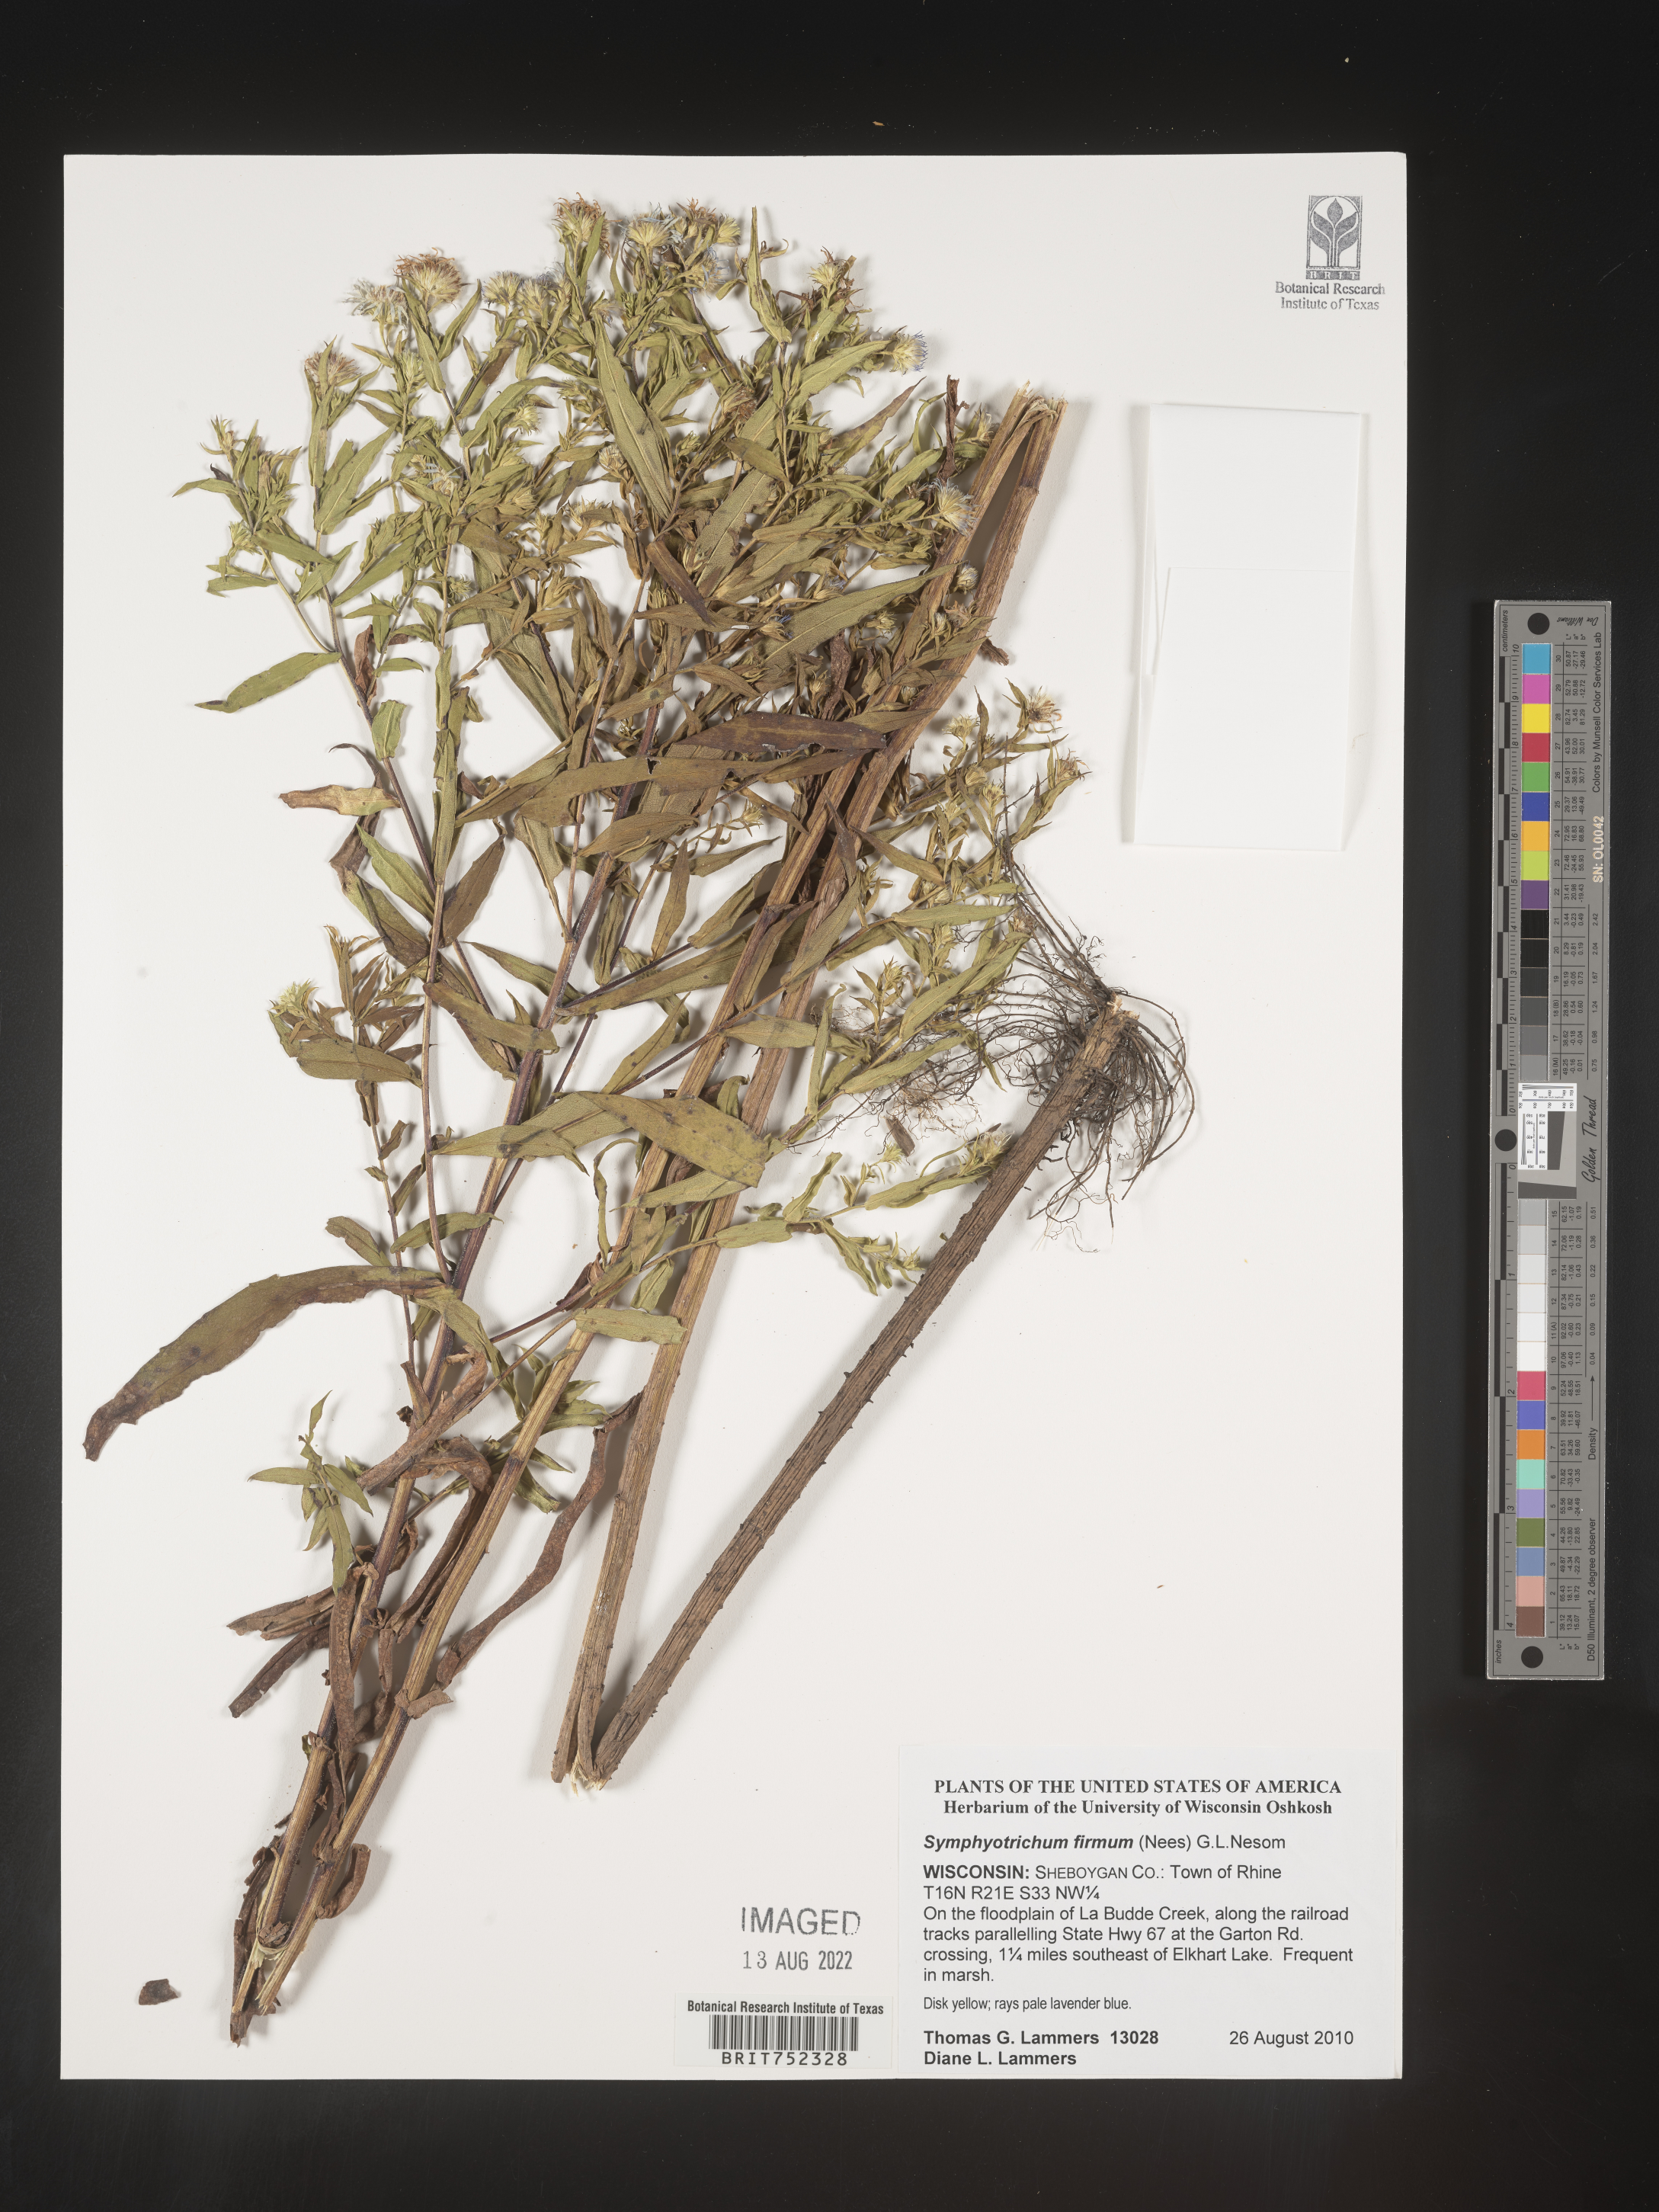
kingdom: Plantae
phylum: Tracheophyta
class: Magnoliopsida
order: Asterales
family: Asteraceae
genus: Symphyotrichum
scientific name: Symphyotrichum firmum
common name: Shining aster
